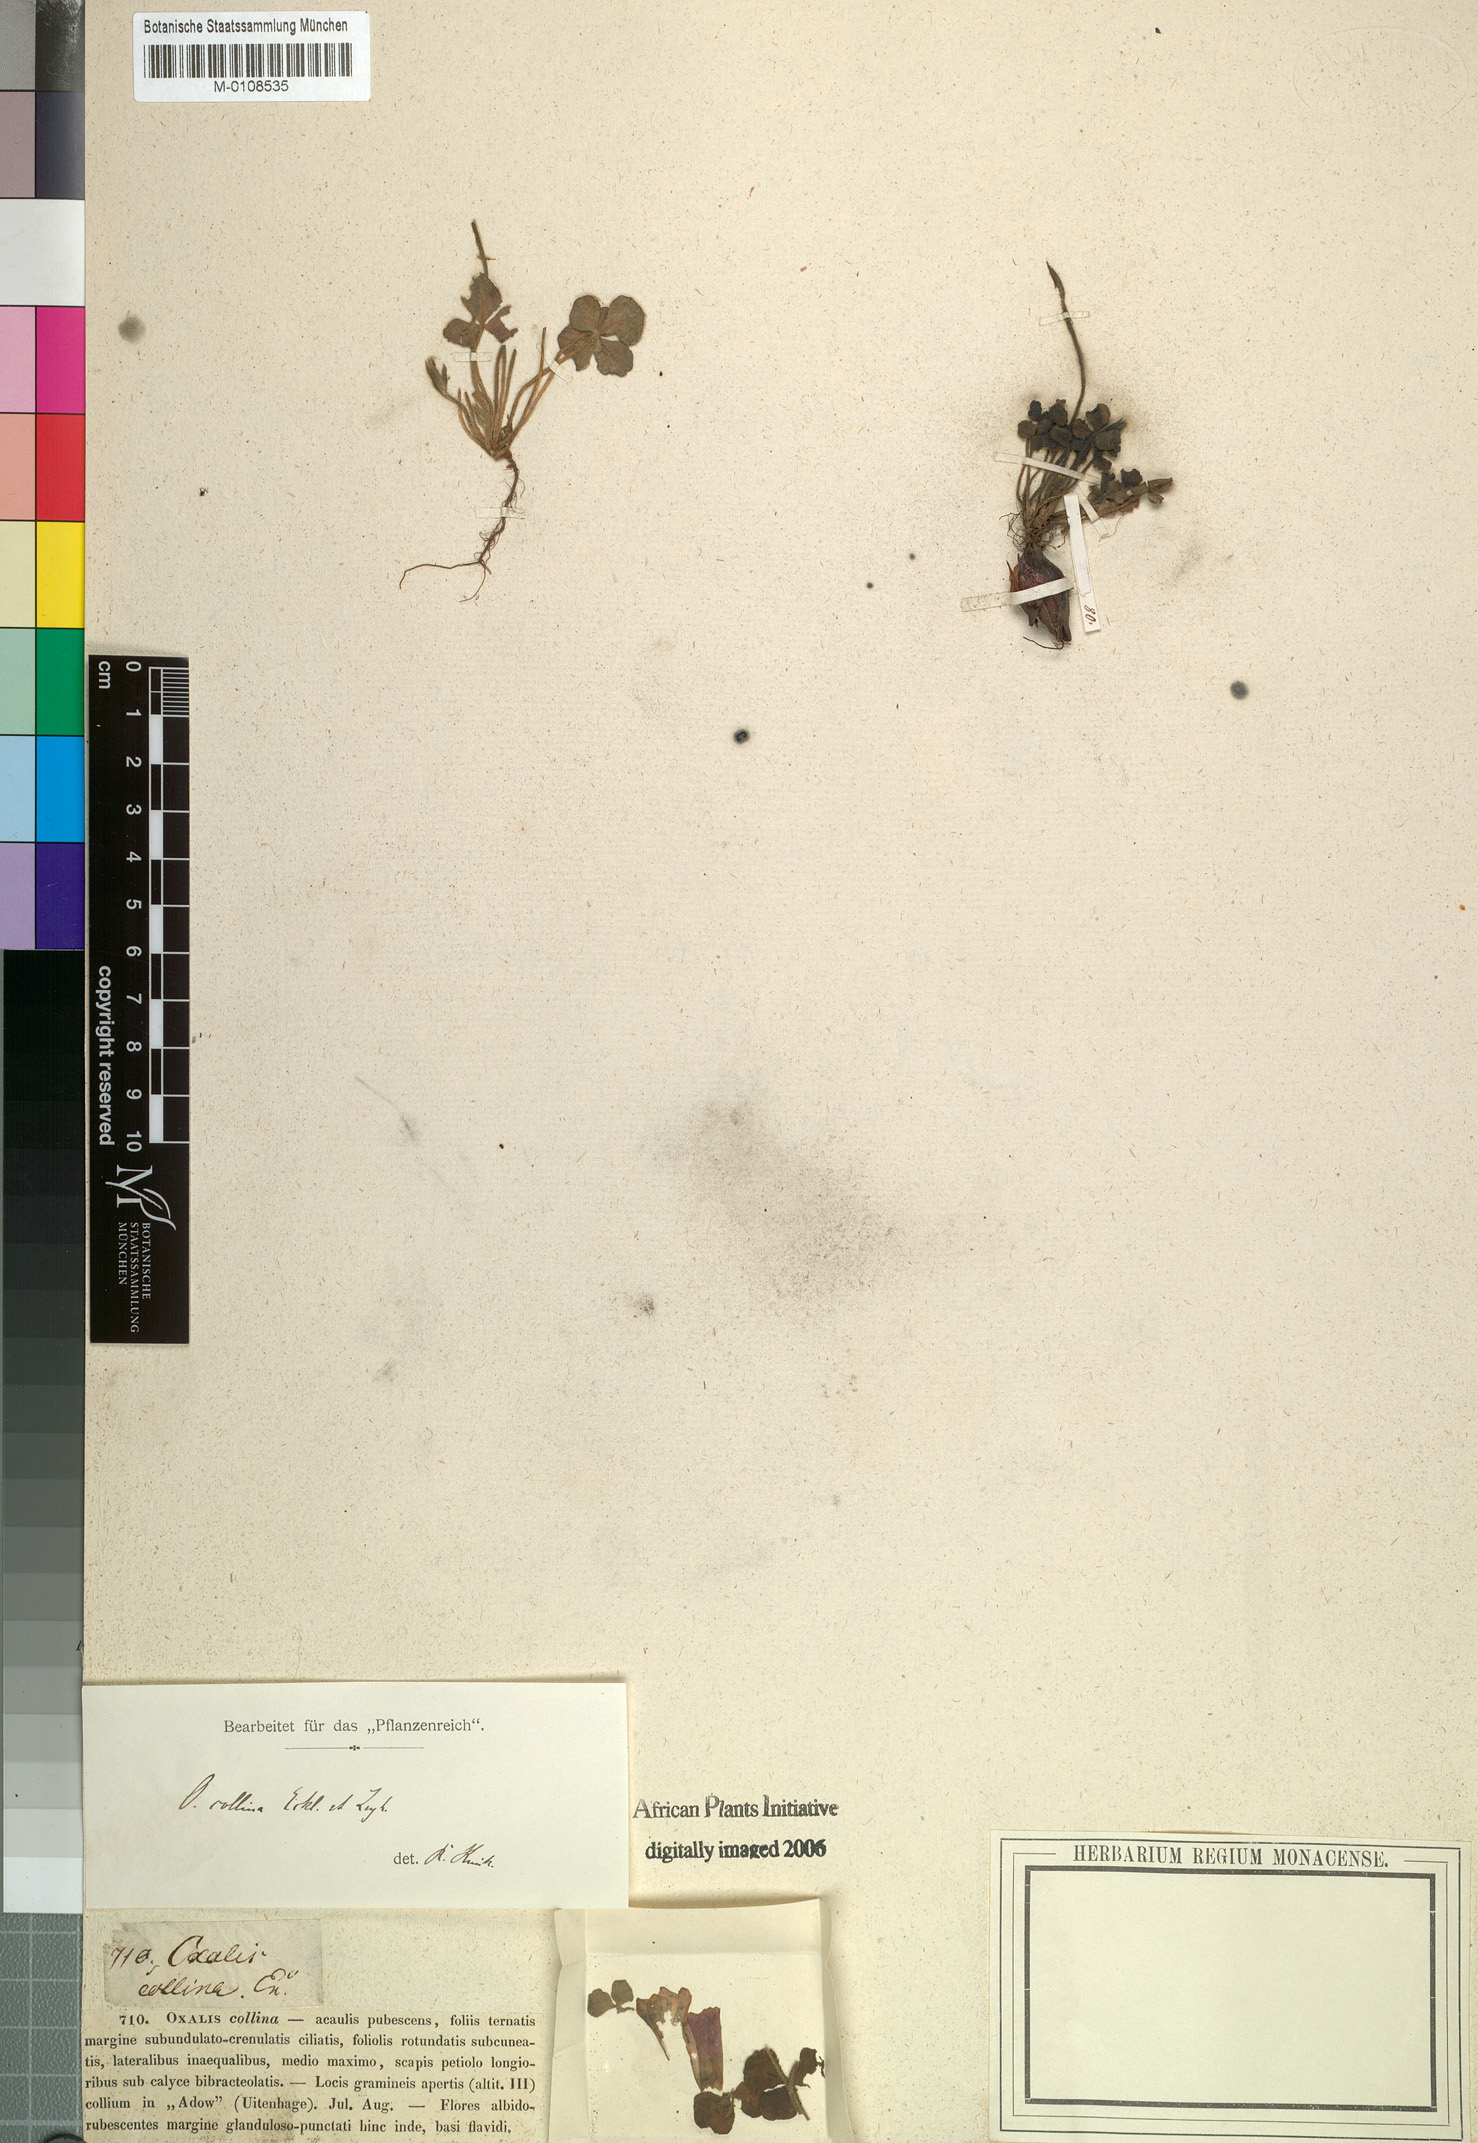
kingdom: Plantae
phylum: Tracheophyta
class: Magnoliopsida
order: Oxalidales
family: Oxalidaceae
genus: Oxalis
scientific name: Oxalis algoensis
